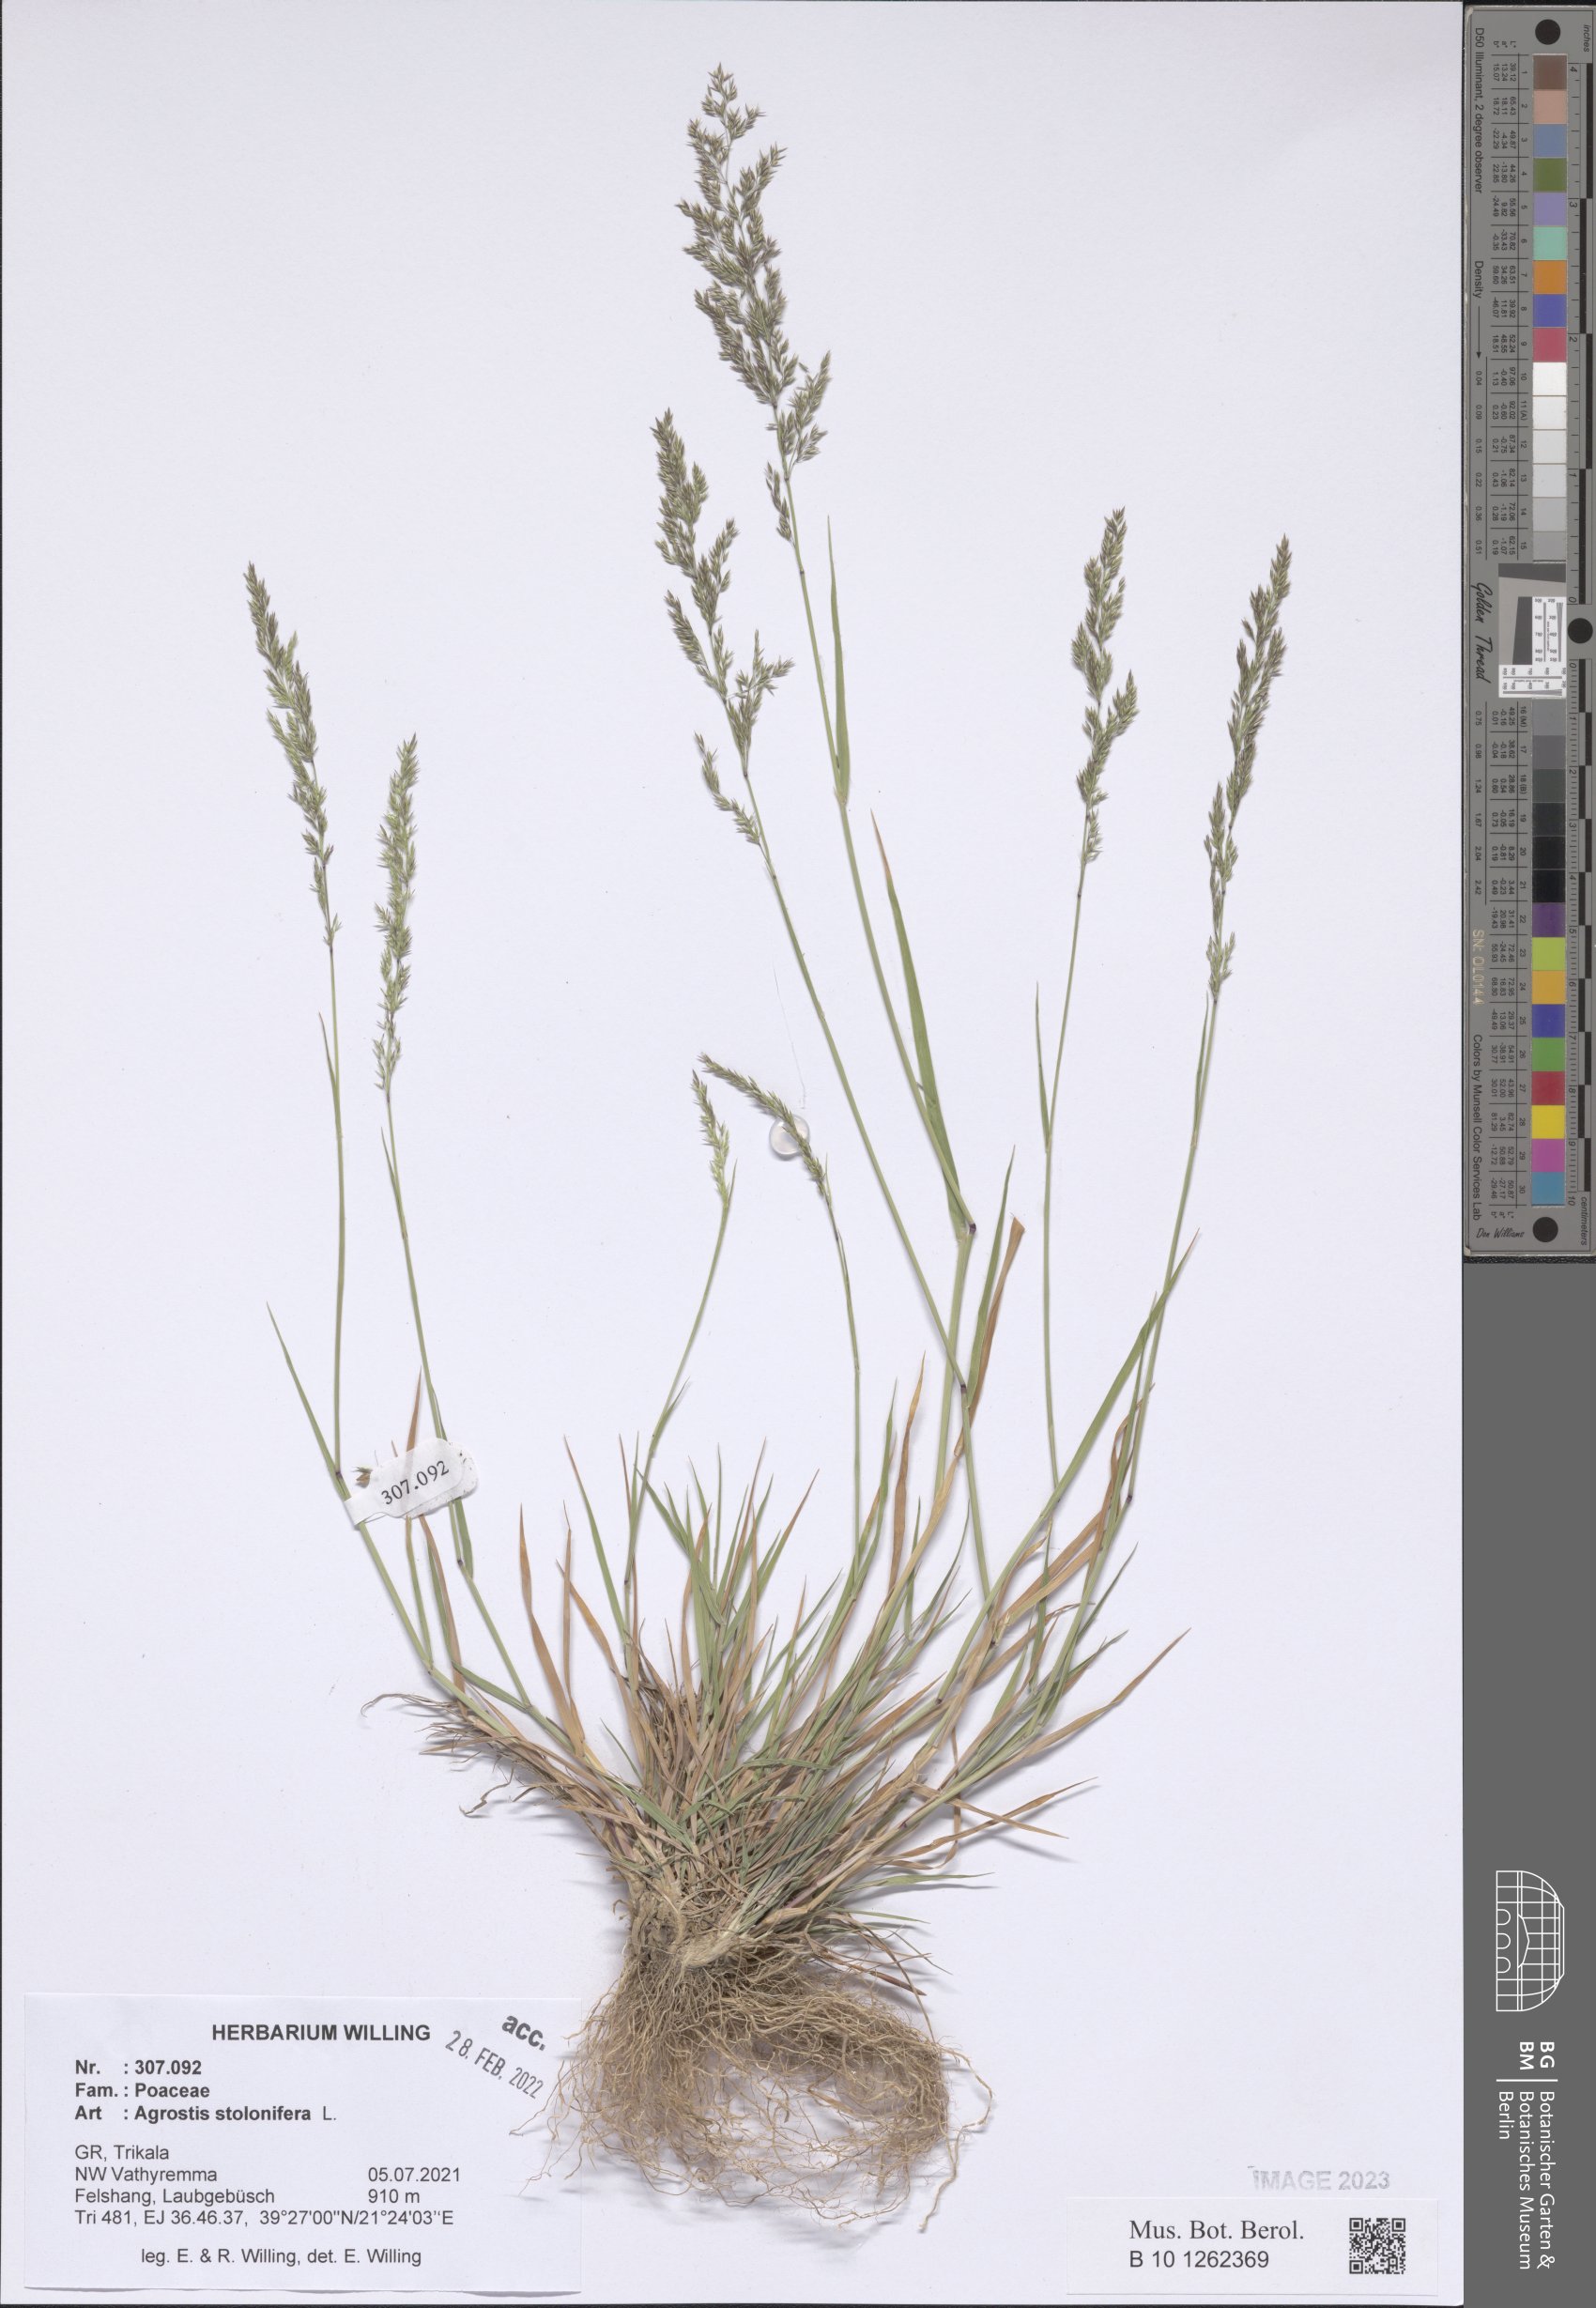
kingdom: Plantae
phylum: Tracheophyta
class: Liliopsida
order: Poales
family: Poaceae
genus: Agrostis
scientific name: Agrostis stolonifera
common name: Creeping bentgrass
